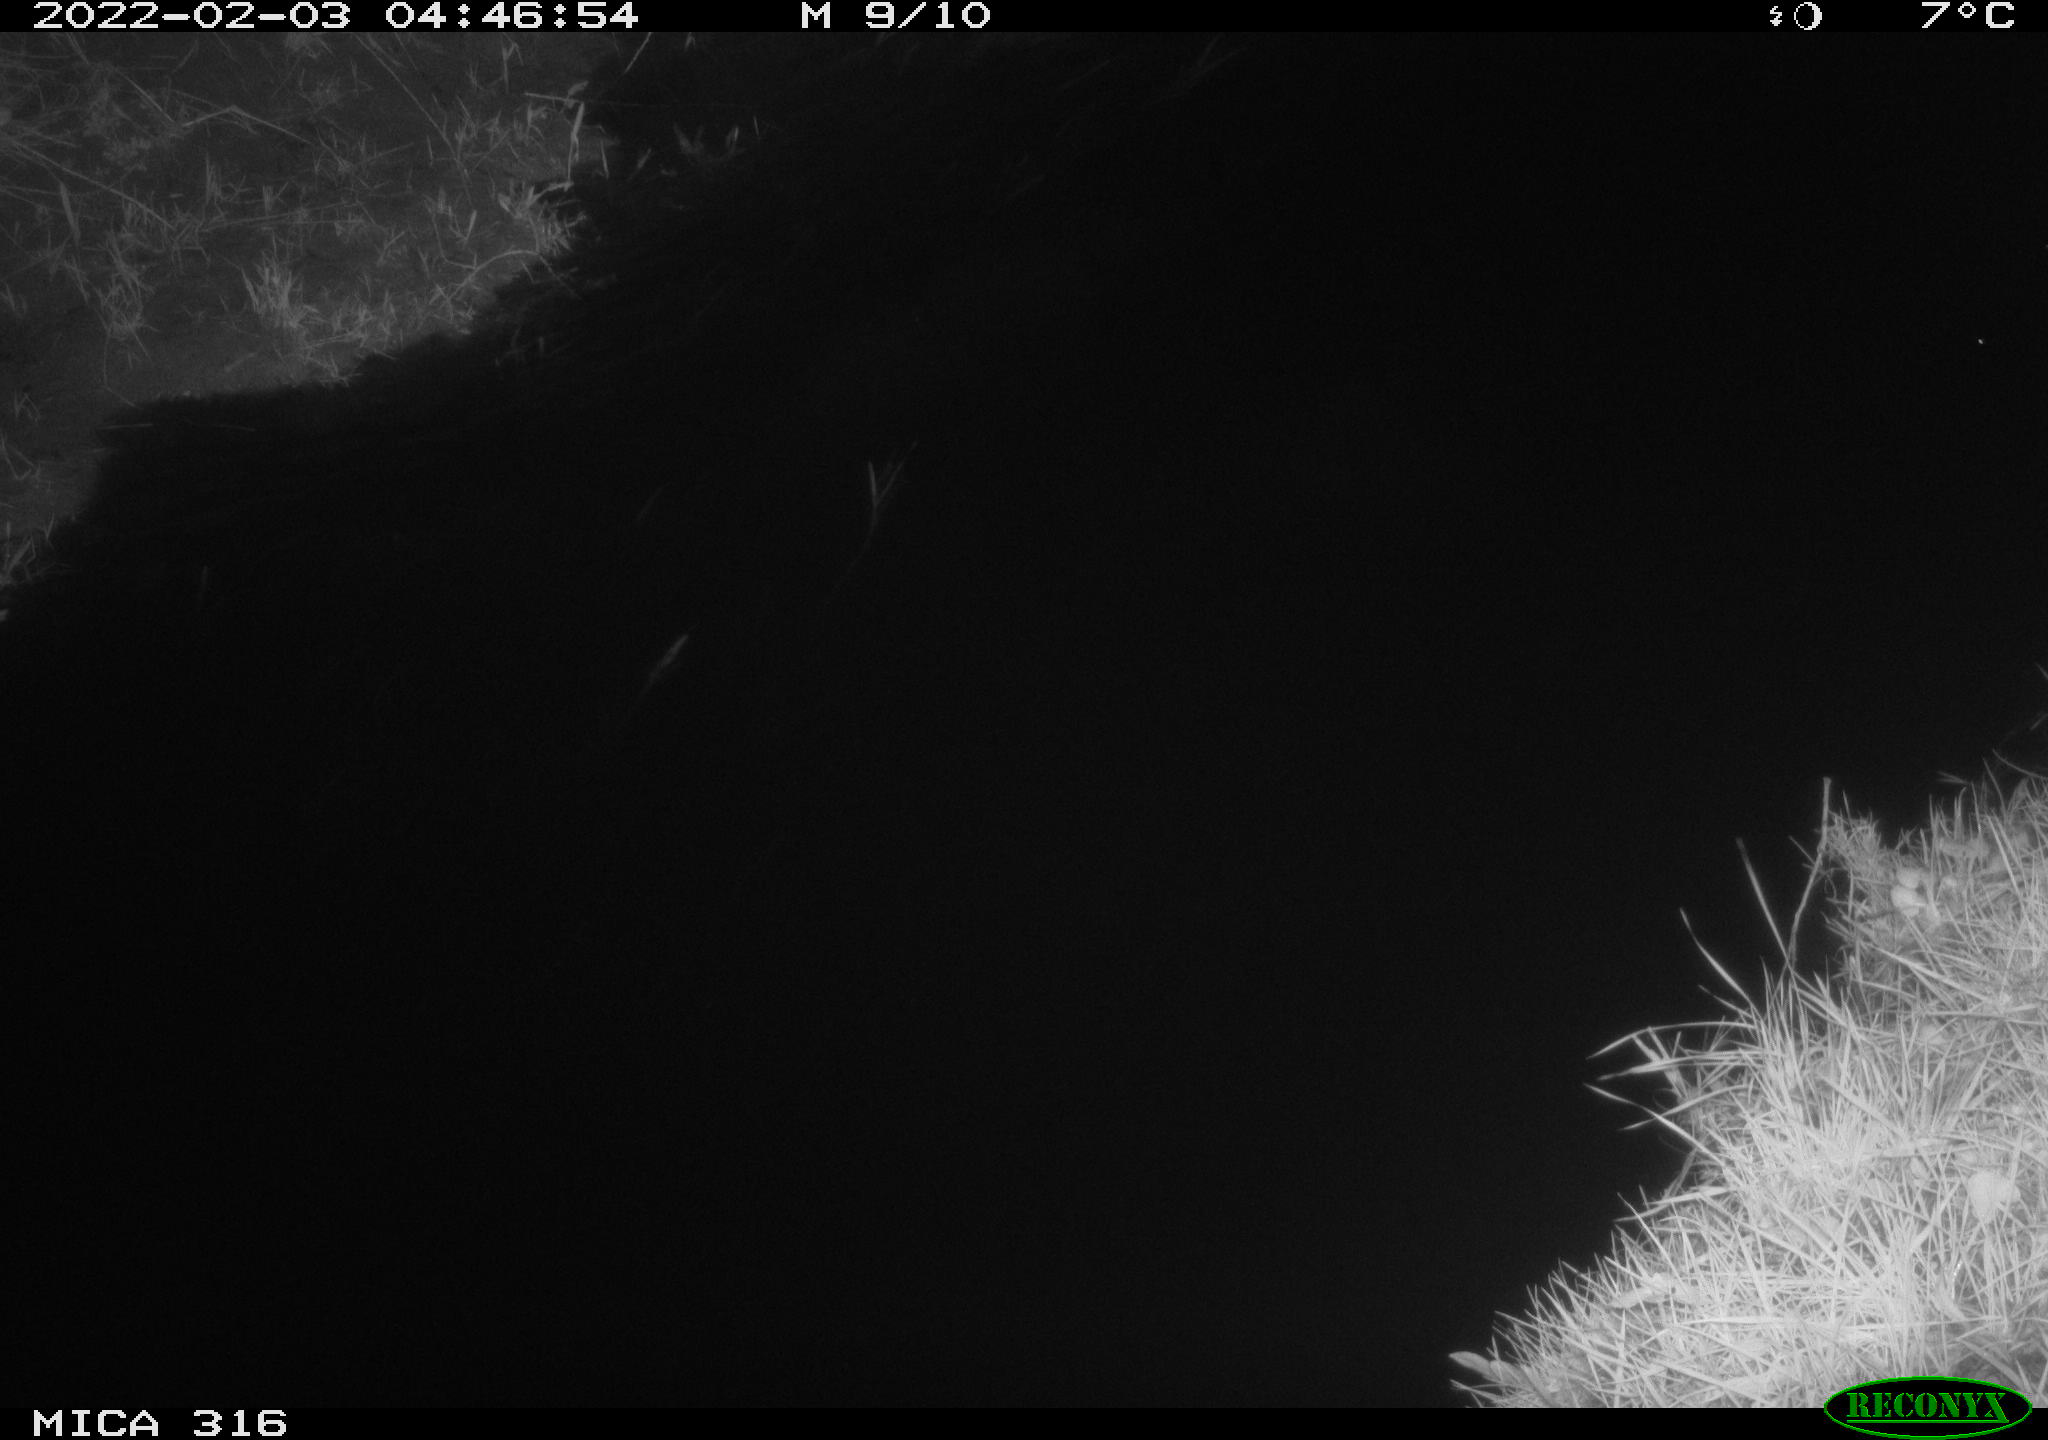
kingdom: Animalia
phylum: Chordata
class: Mammalia
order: Rodentia
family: Muridae
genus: Rattus
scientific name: Rattus norvegicus
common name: Brown rat
